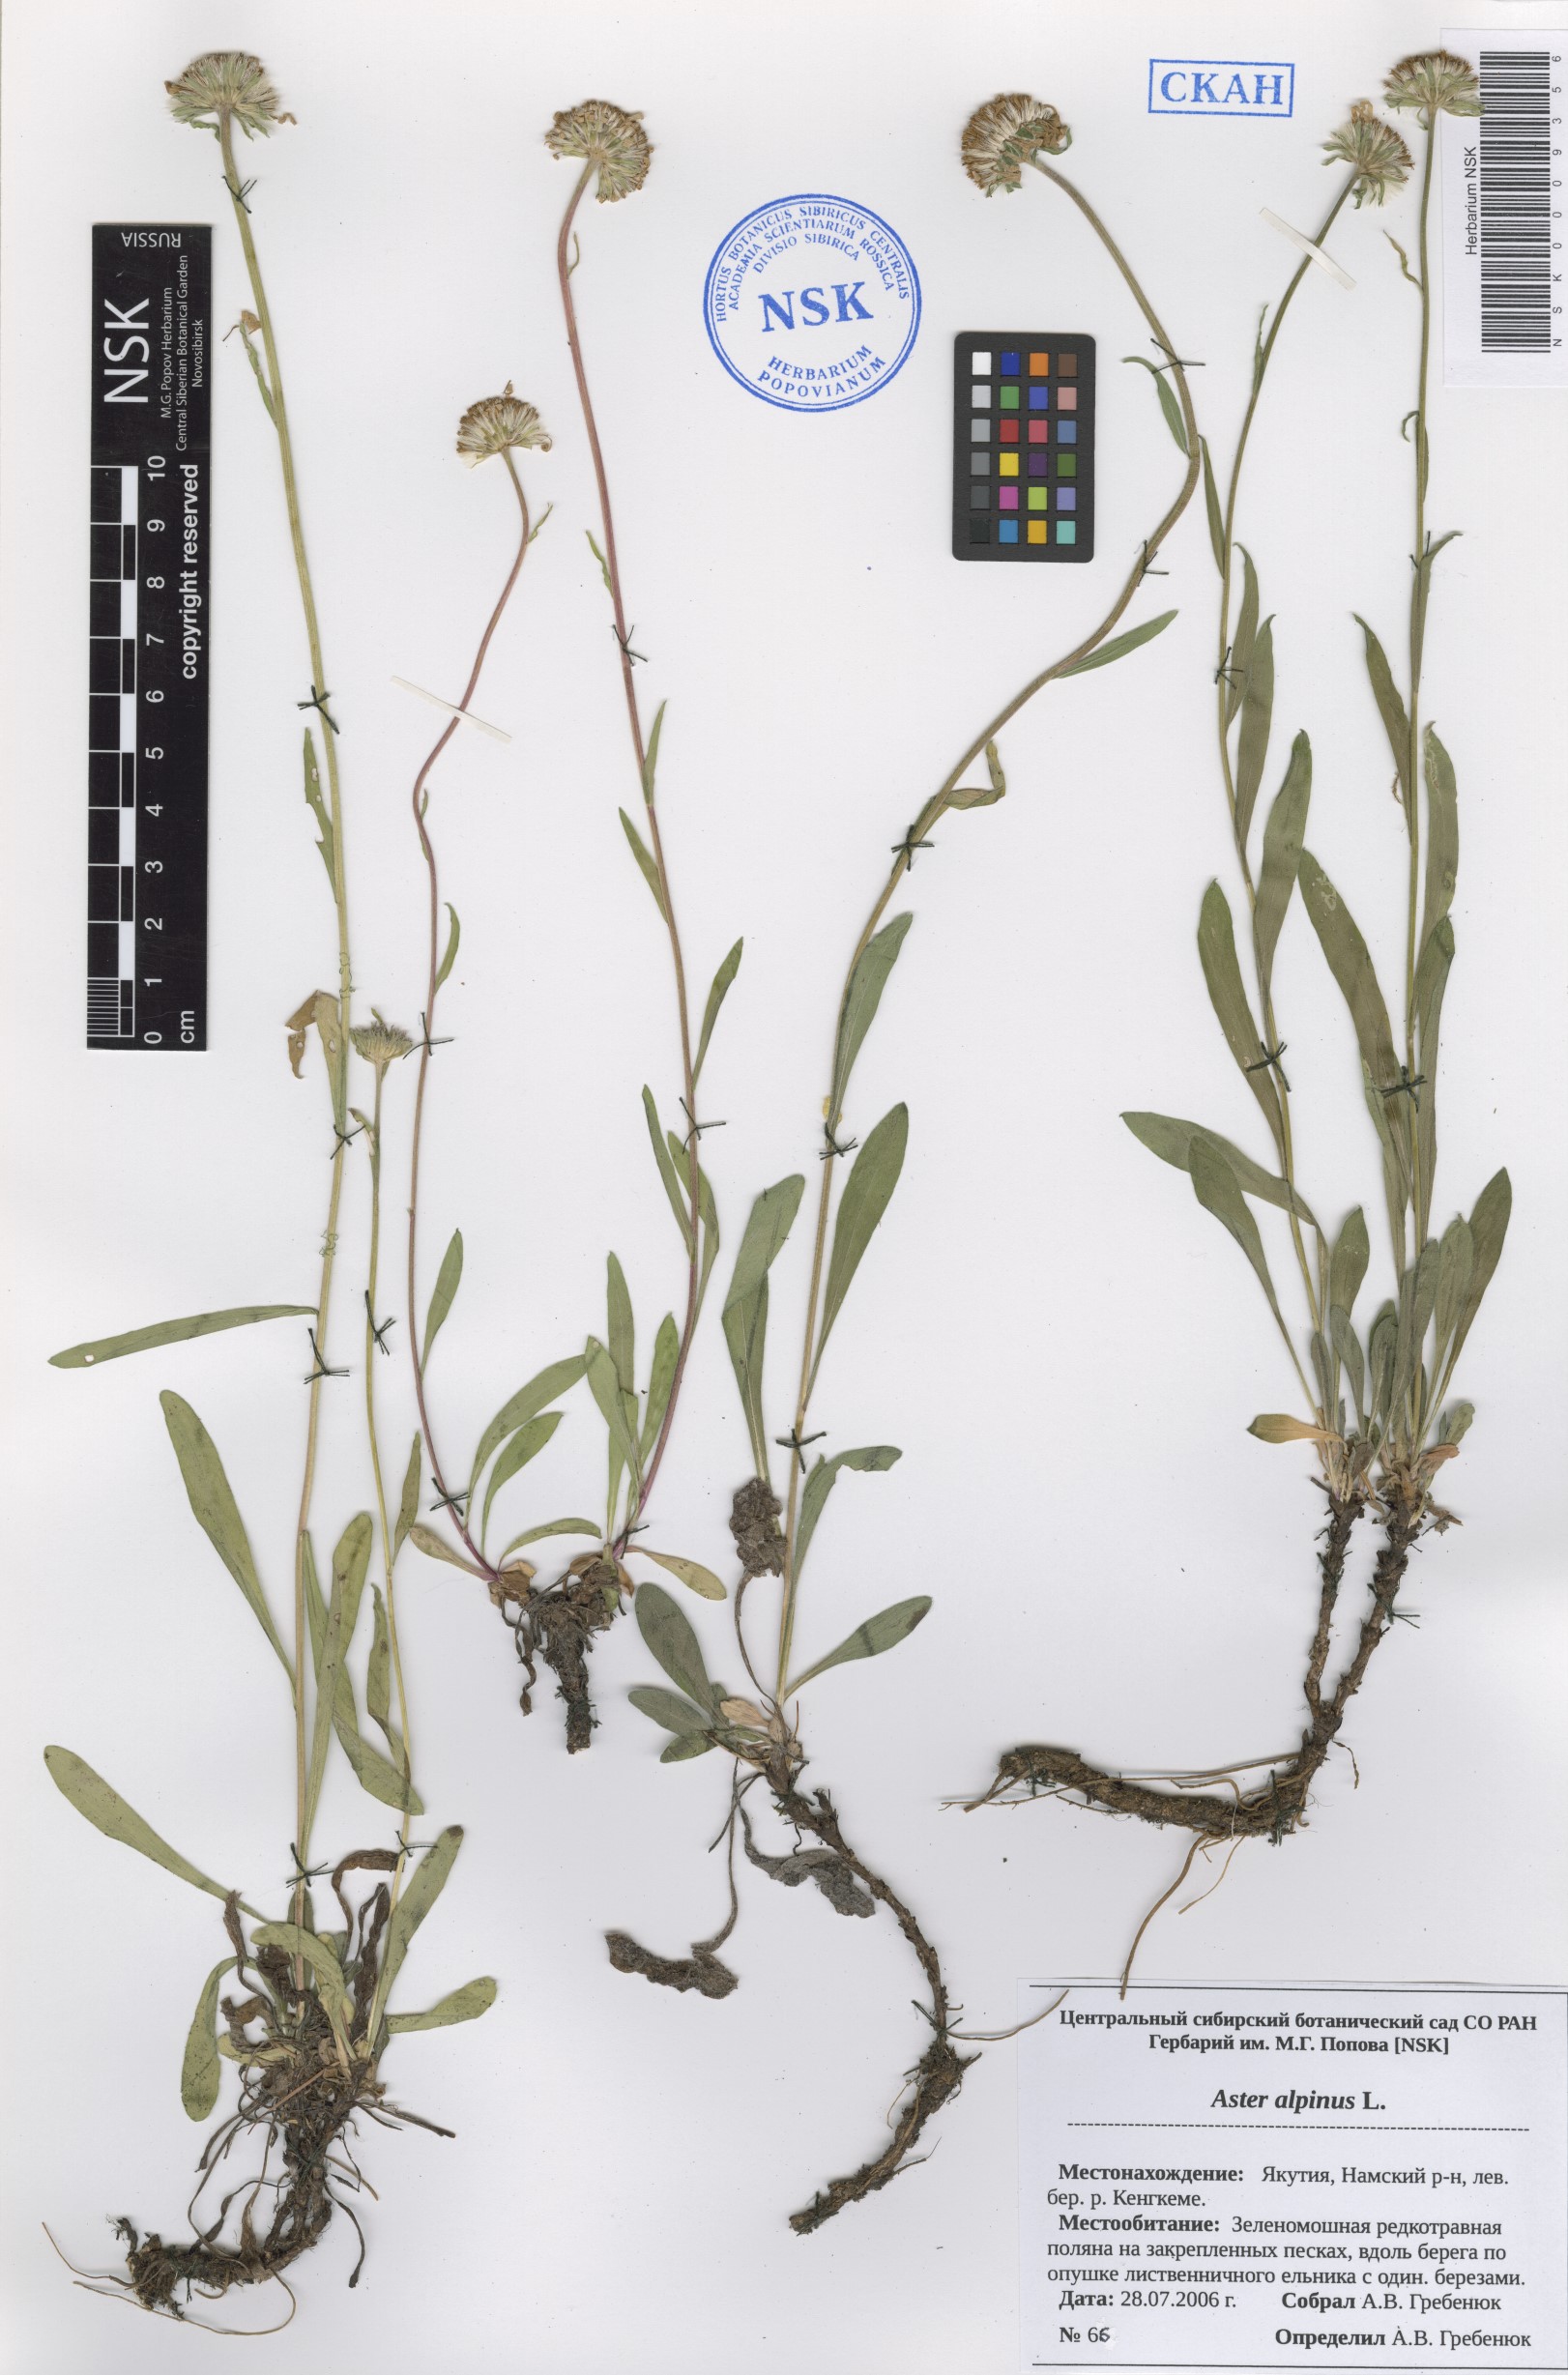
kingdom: Plantae
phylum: Tracheophyta
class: Magnoliopsida
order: Asterales
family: Asteraceae
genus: Aster
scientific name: Aster alpinus
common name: Alpine aster
